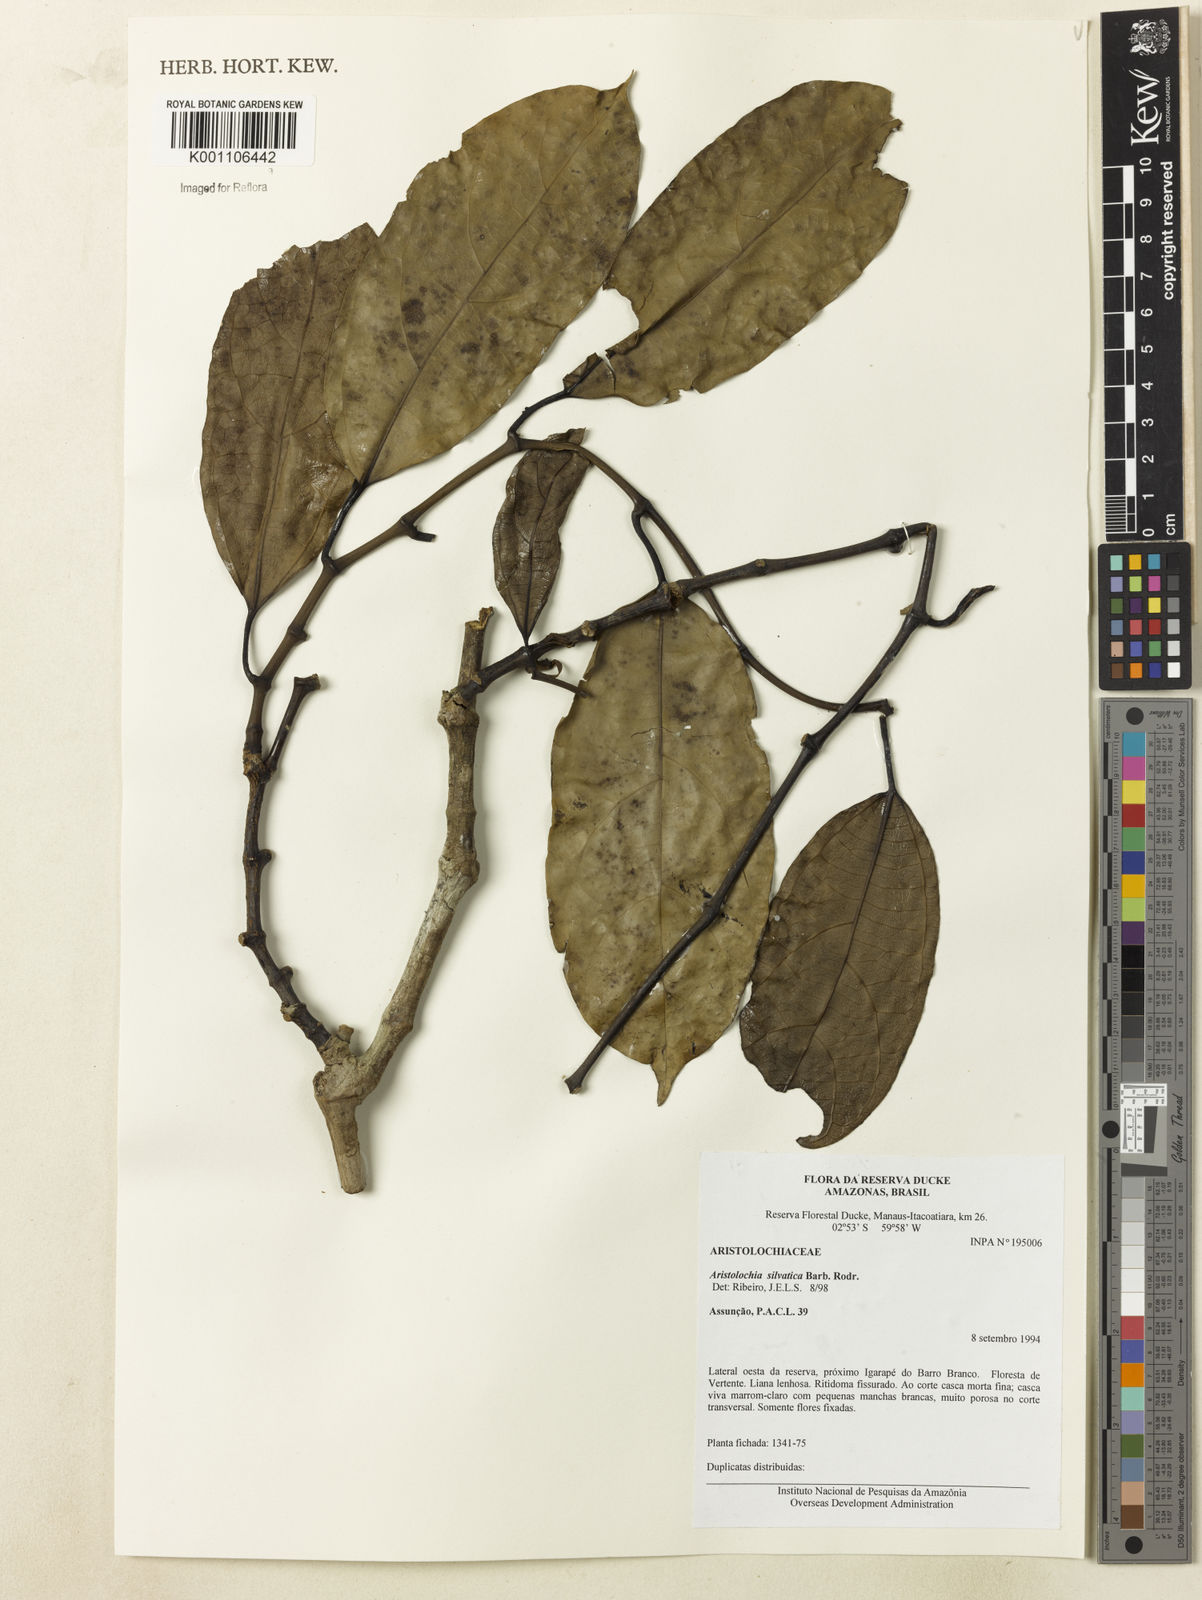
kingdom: Plantae
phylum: Tracheophyta
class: Magnoliopsida
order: Piperales
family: Aristolochiaceae
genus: Aristolochia
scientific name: Aristolochia silvatica
